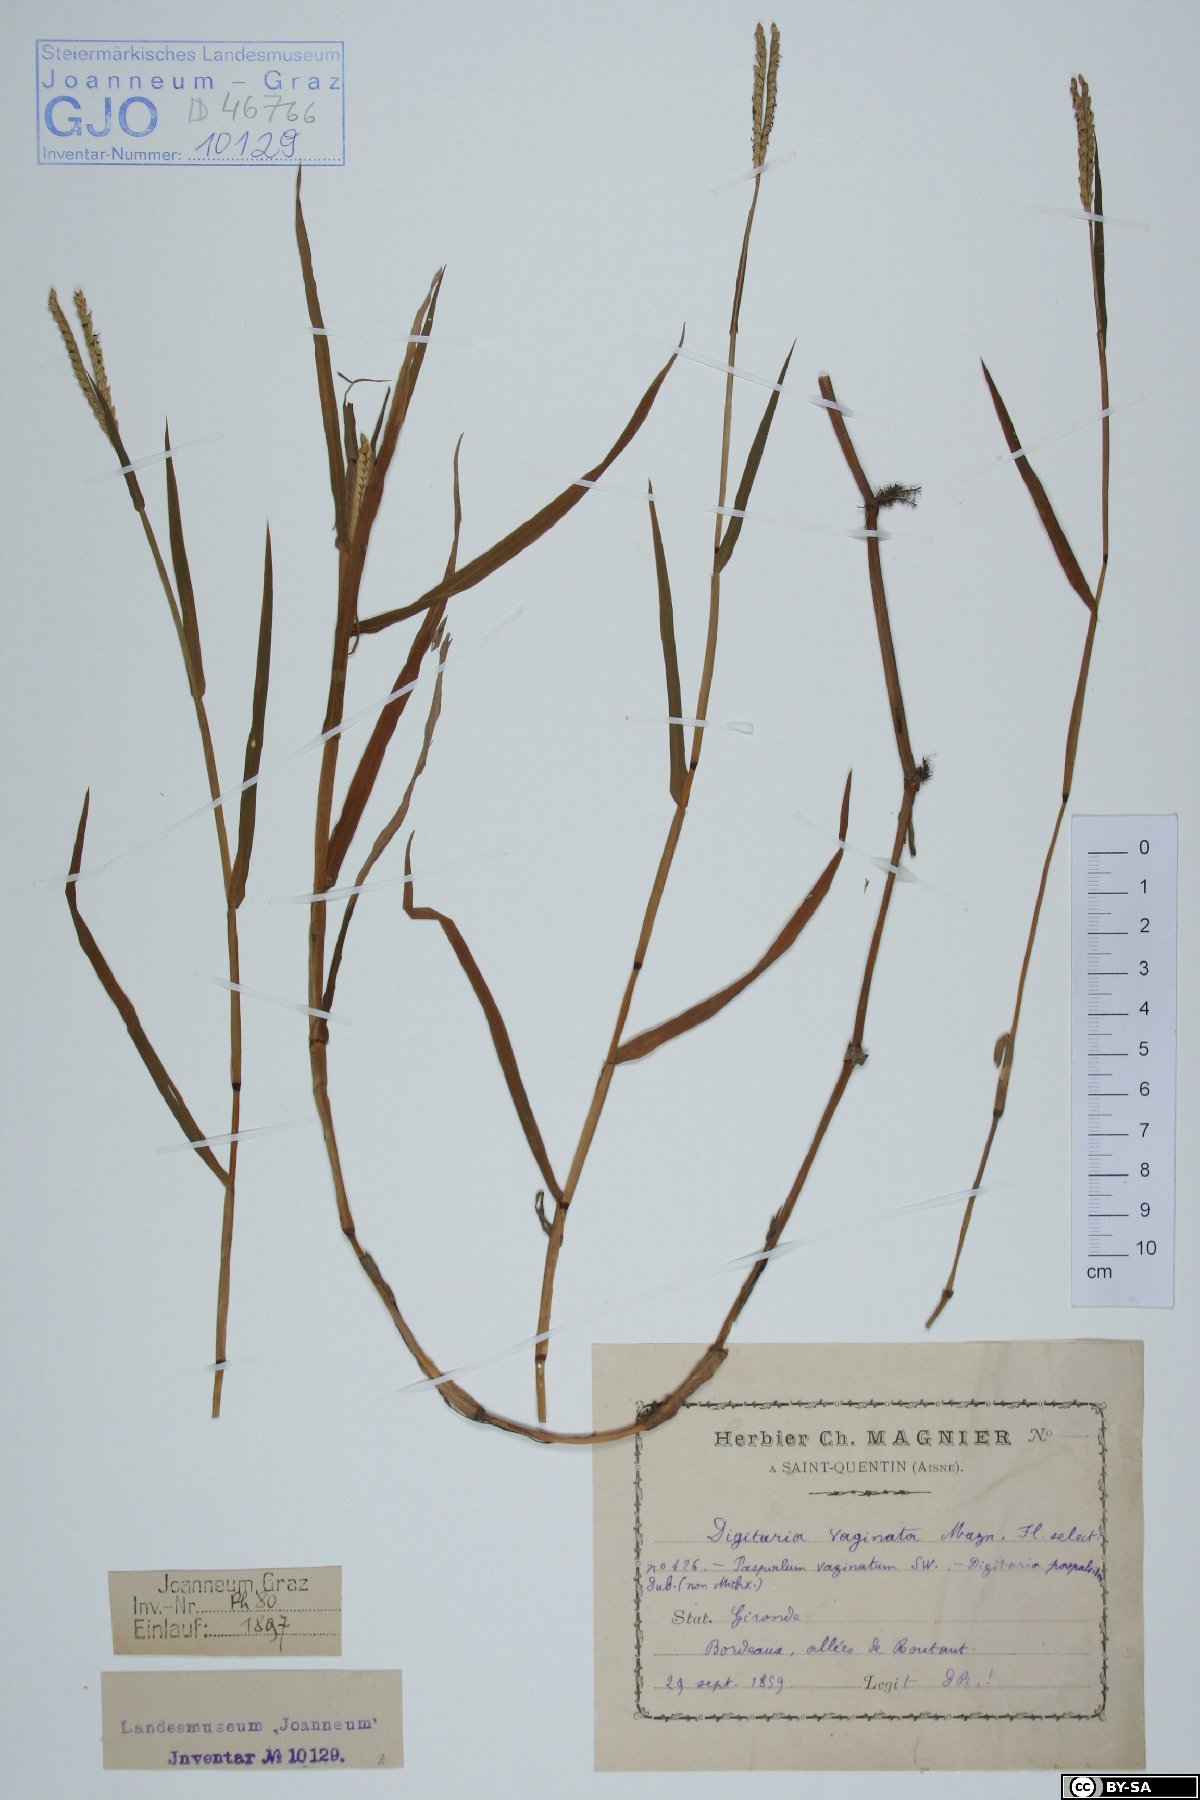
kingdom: Plantae
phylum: Tracheophyta
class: Liliopsida
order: Poales
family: Poaceae
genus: Paspalum
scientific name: Paspalum vaginatum
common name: Seashore paspalum
